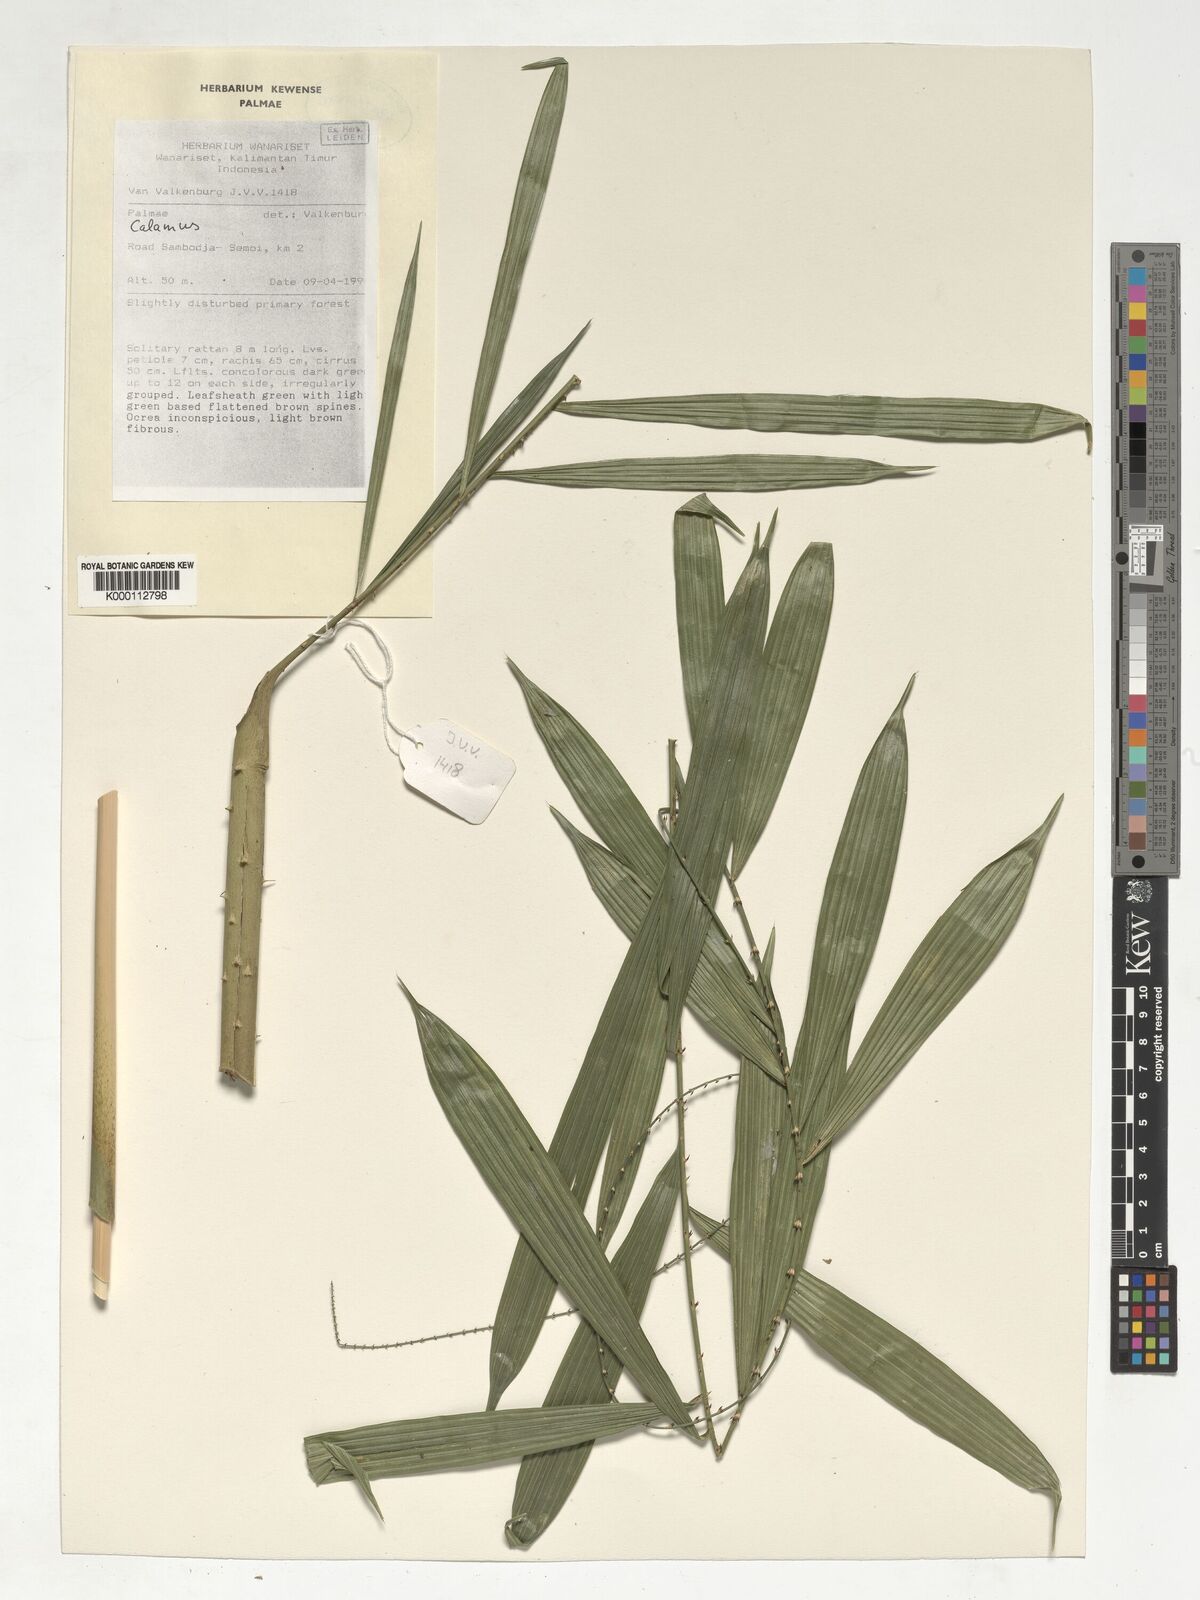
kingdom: Plantae
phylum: Tracheophyta
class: Liliopsida
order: Arecales
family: Arecaceae
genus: Calamus
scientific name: Calamus plicatus
